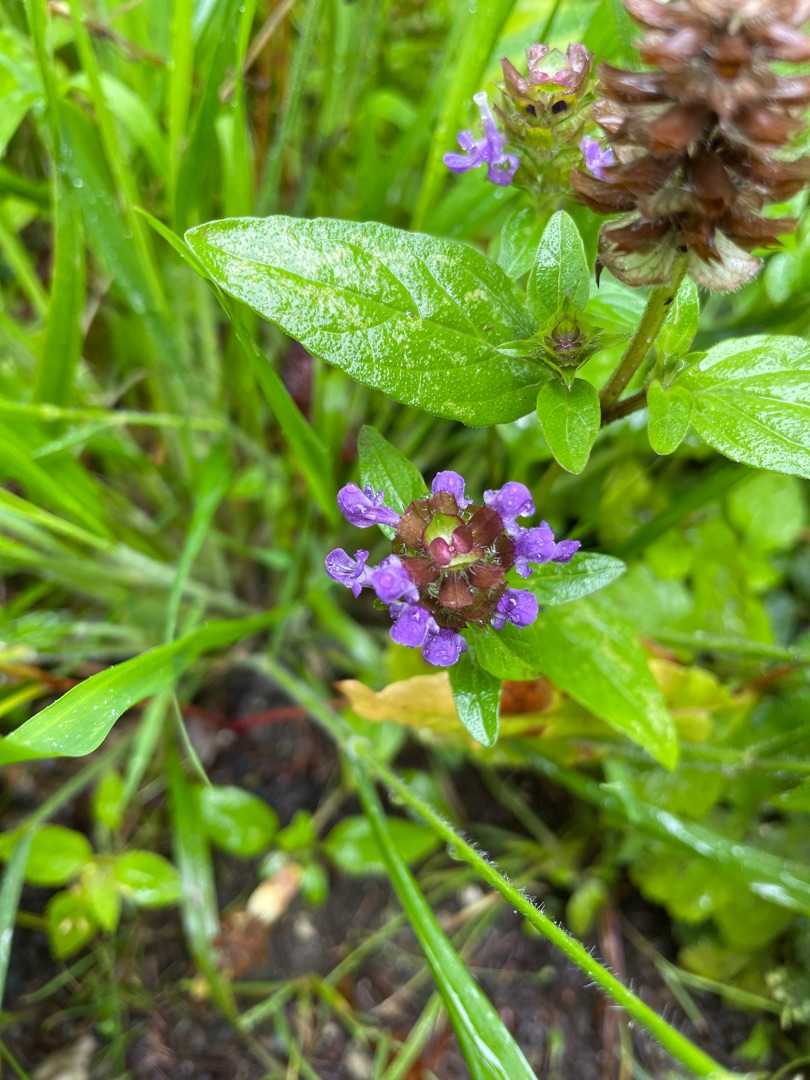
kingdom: Plantae
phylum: Tracheophyta
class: Magnoliopsida
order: Lamiales
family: Lamiaceae
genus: Prunella
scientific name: Prunella vulgaris
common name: Almindelig brunelle
